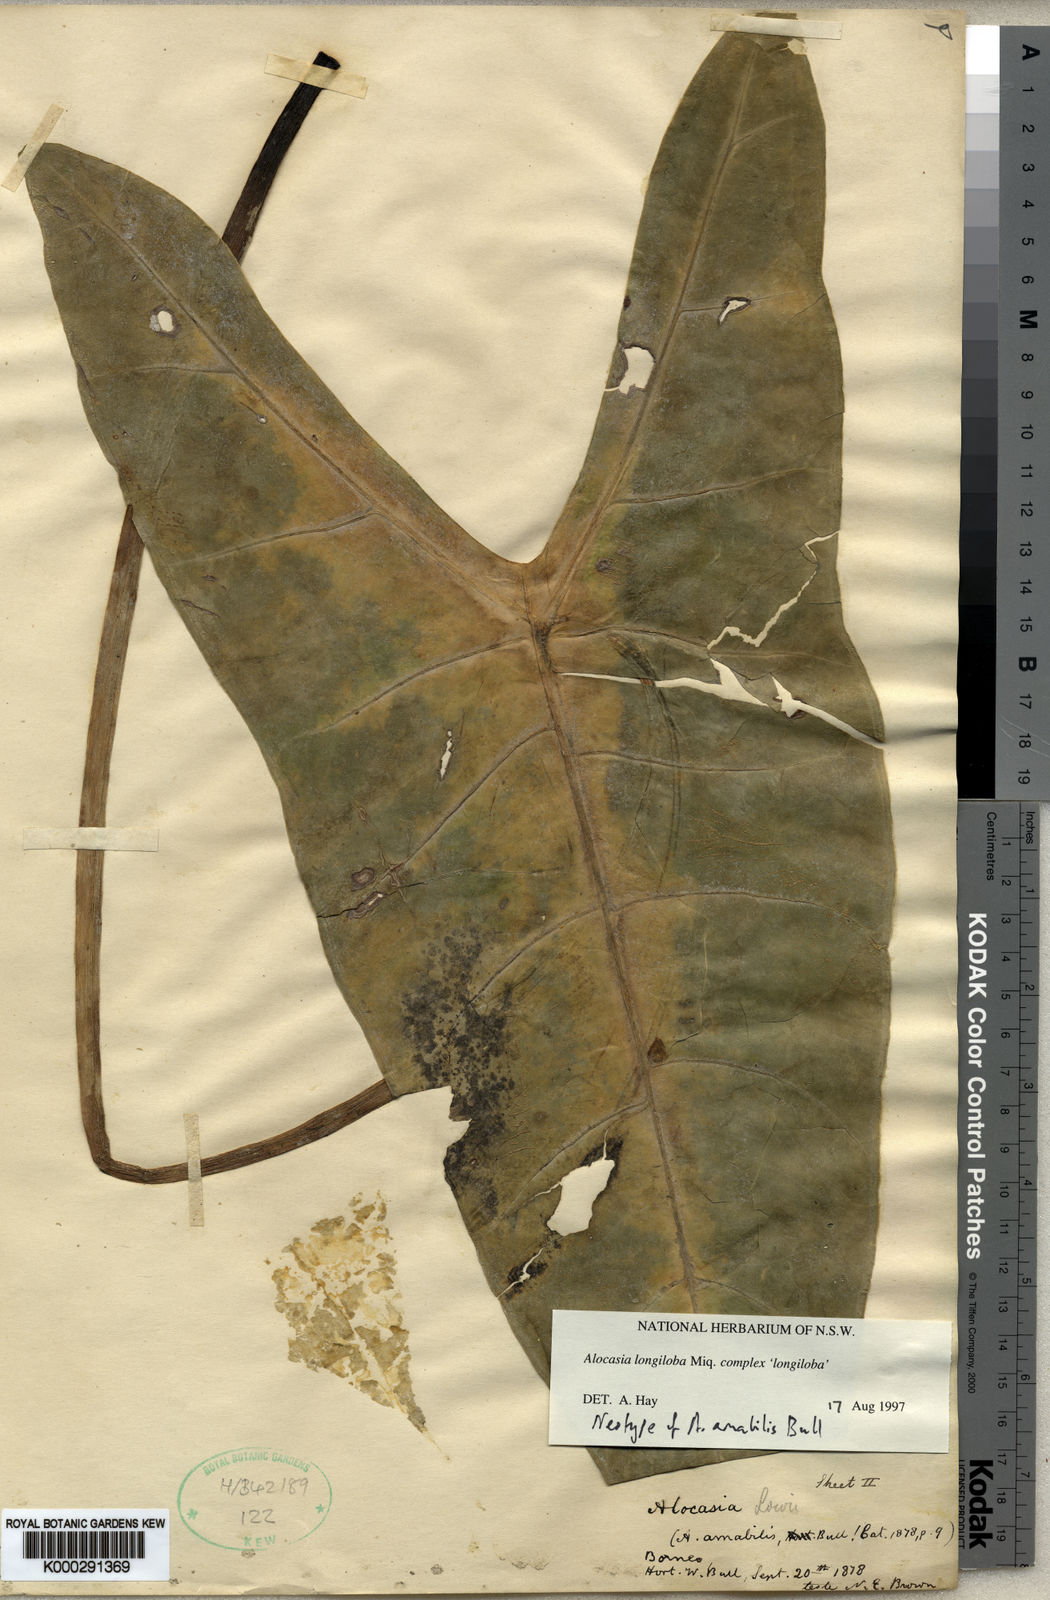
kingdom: Plantae
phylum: Tracheophyta
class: Liliopsida
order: Alismatales
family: Araceae
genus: Alocasia
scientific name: Alocasia longiloba
